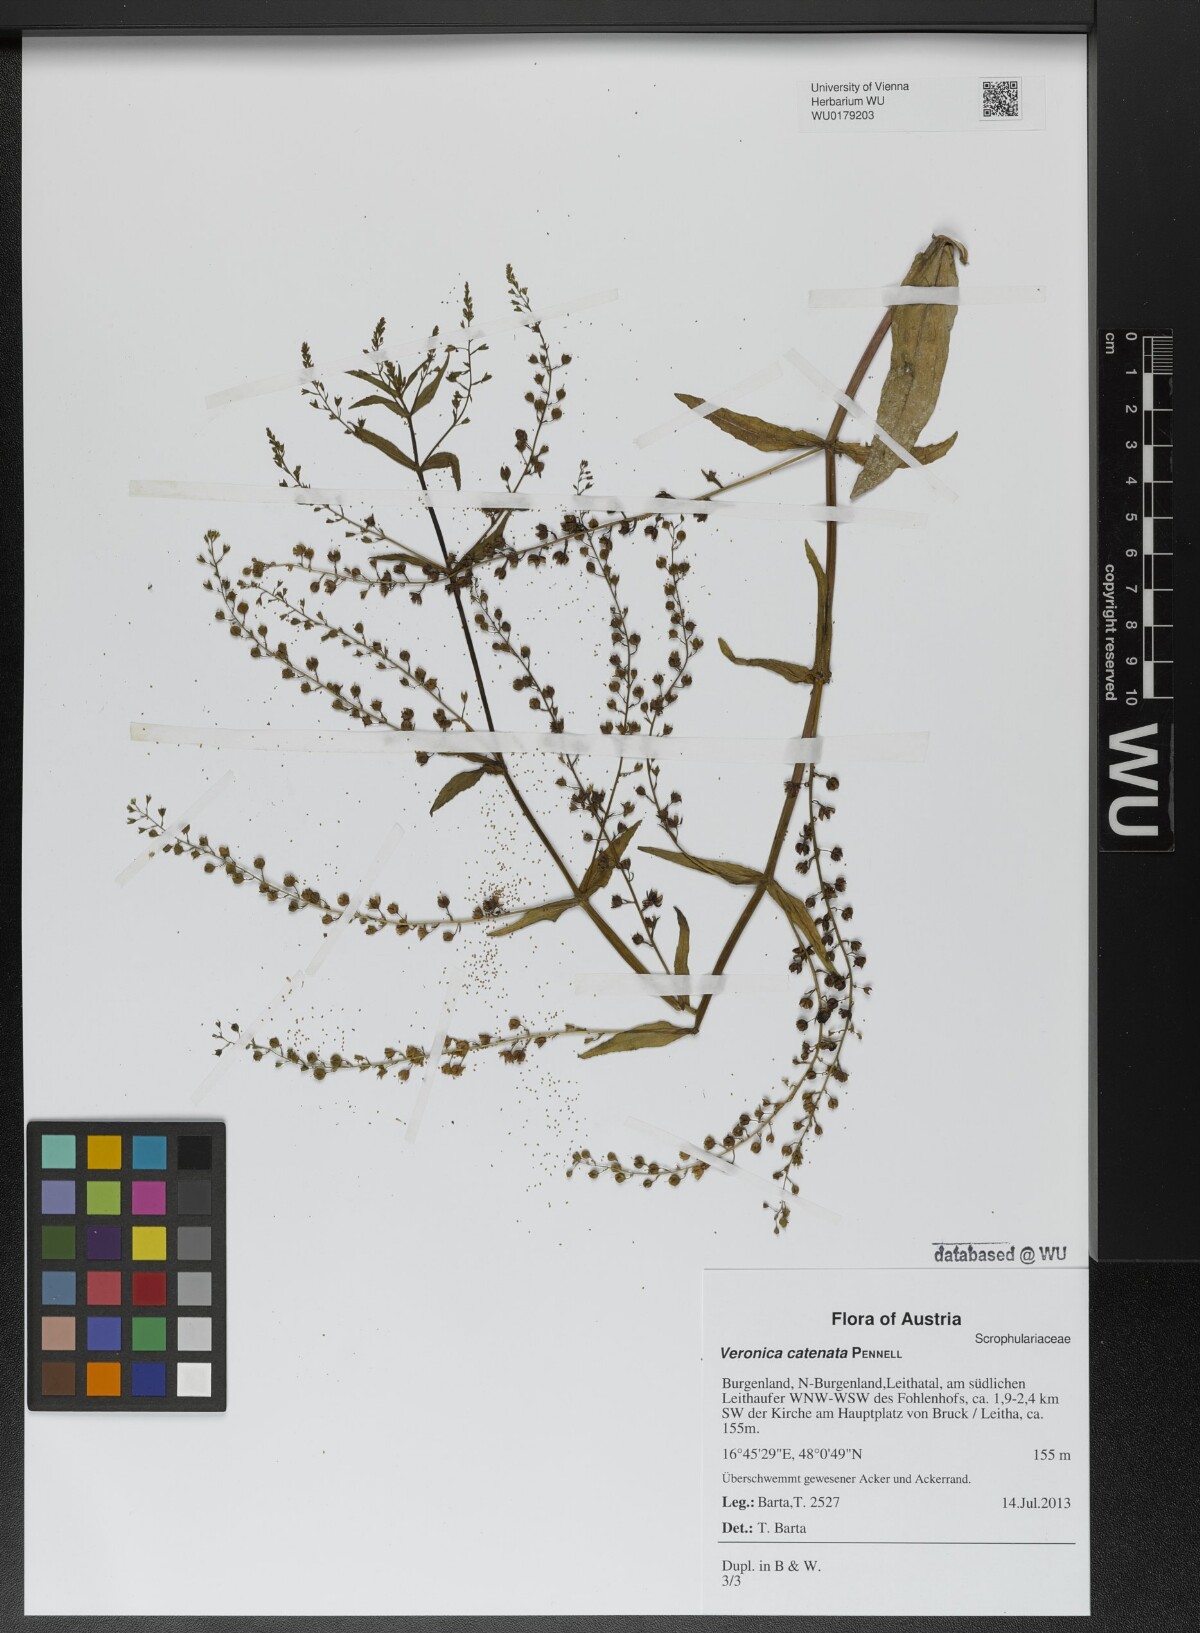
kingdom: Plantae
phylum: Tracheophyta
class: Magnoliopsida
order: Lamiales
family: Plantaginaceae
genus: Veronica
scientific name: Veronica catenata
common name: Pink water-speedwell
